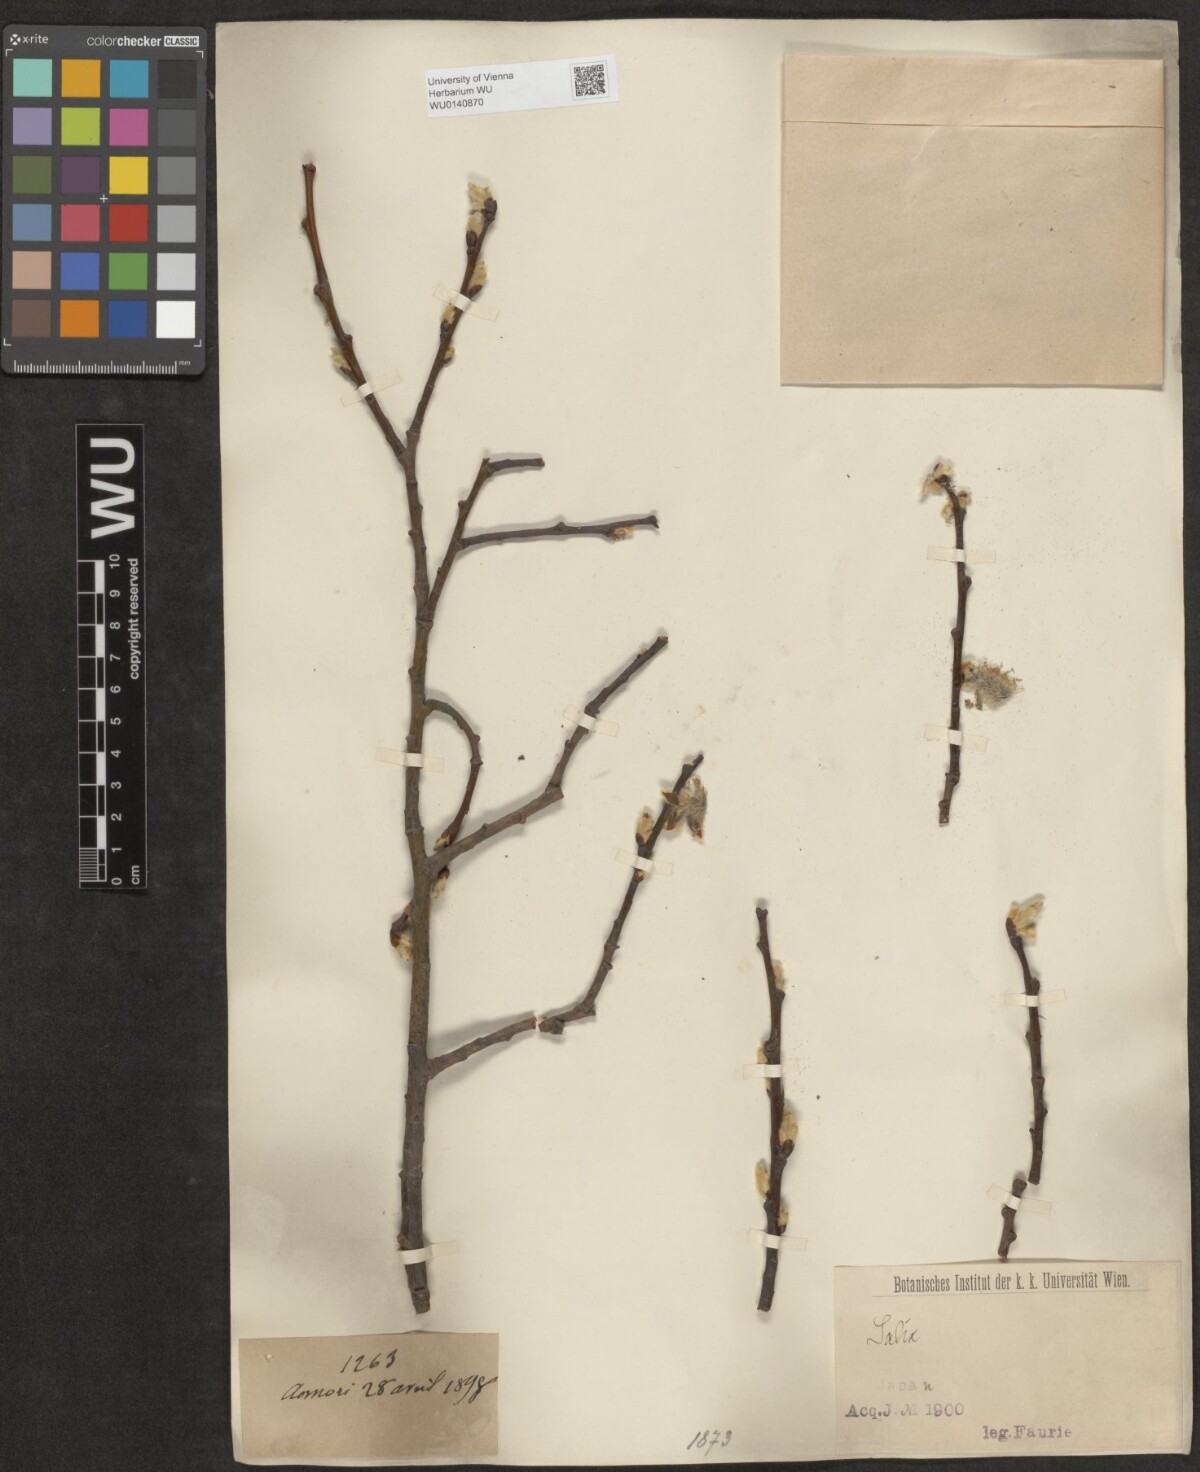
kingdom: Plantae
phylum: Tracheophyta
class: Magnoliopsida
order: Malpighiales
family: Salicaceae
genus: Salix
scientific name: Salix
